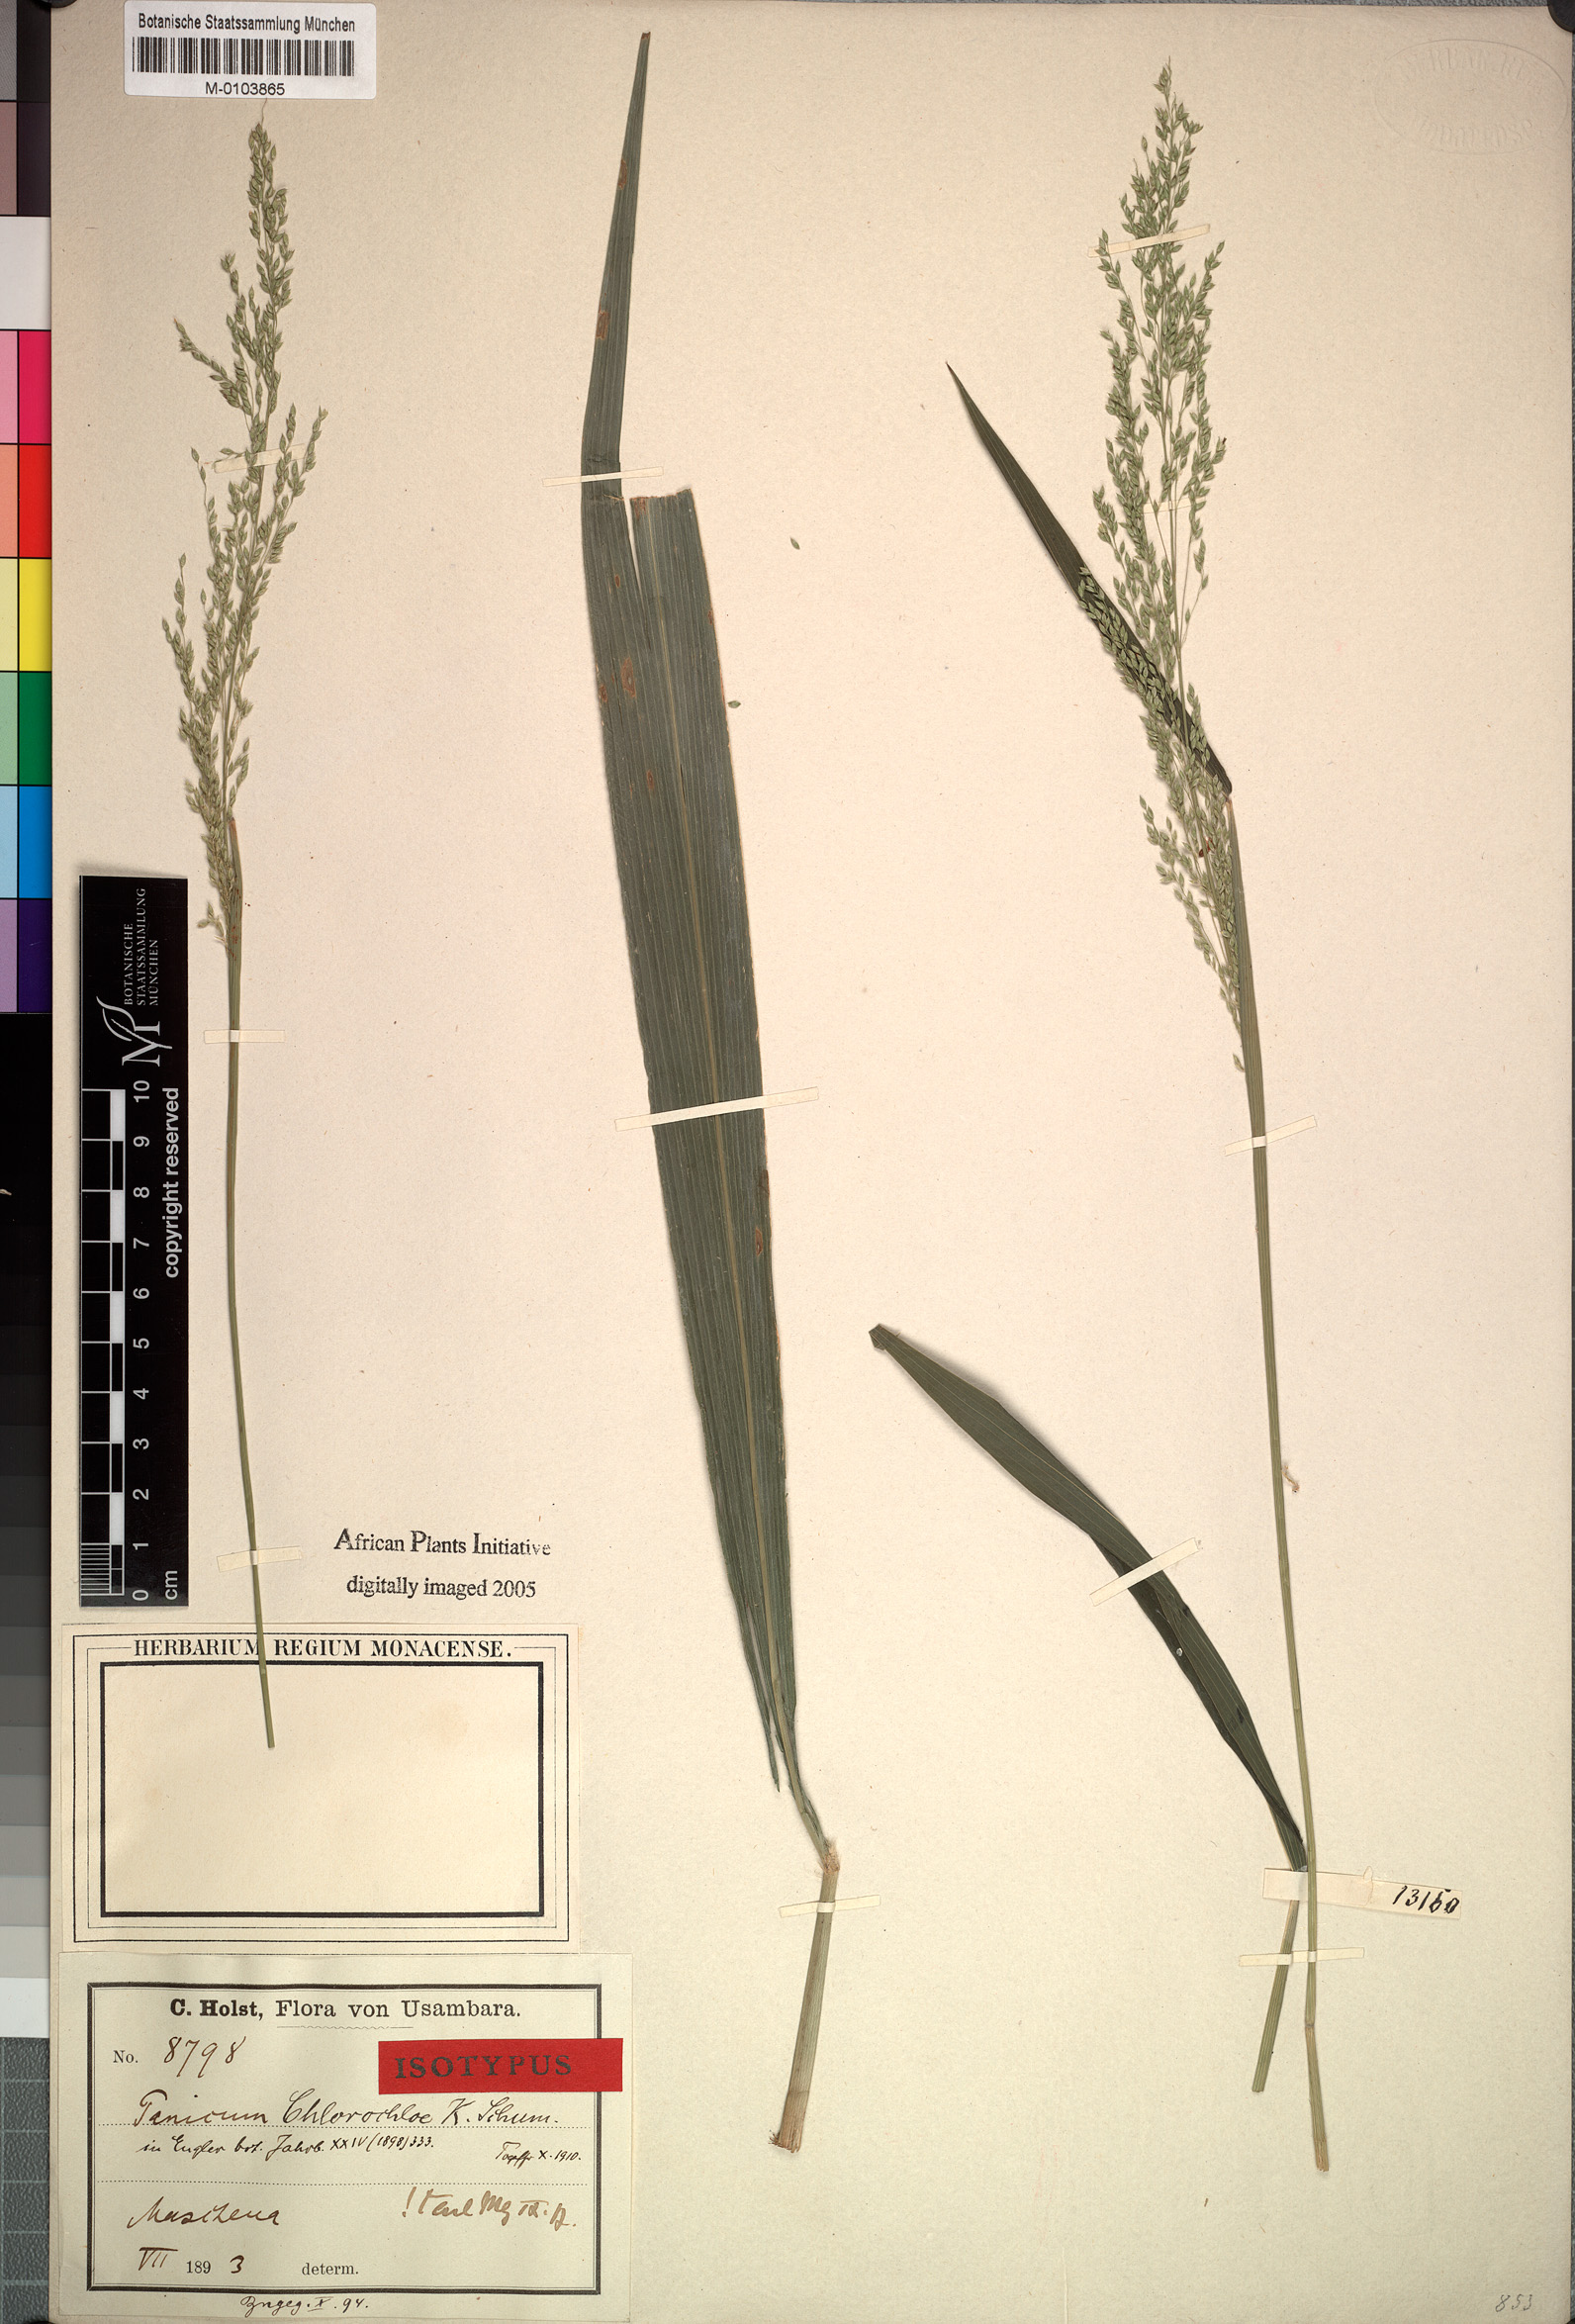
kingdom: Plantae
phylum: Tracheophyta
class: Liliopsida
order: Poales
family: Poaceae
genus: Hylebates
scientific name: Hylebates chlorochloe
